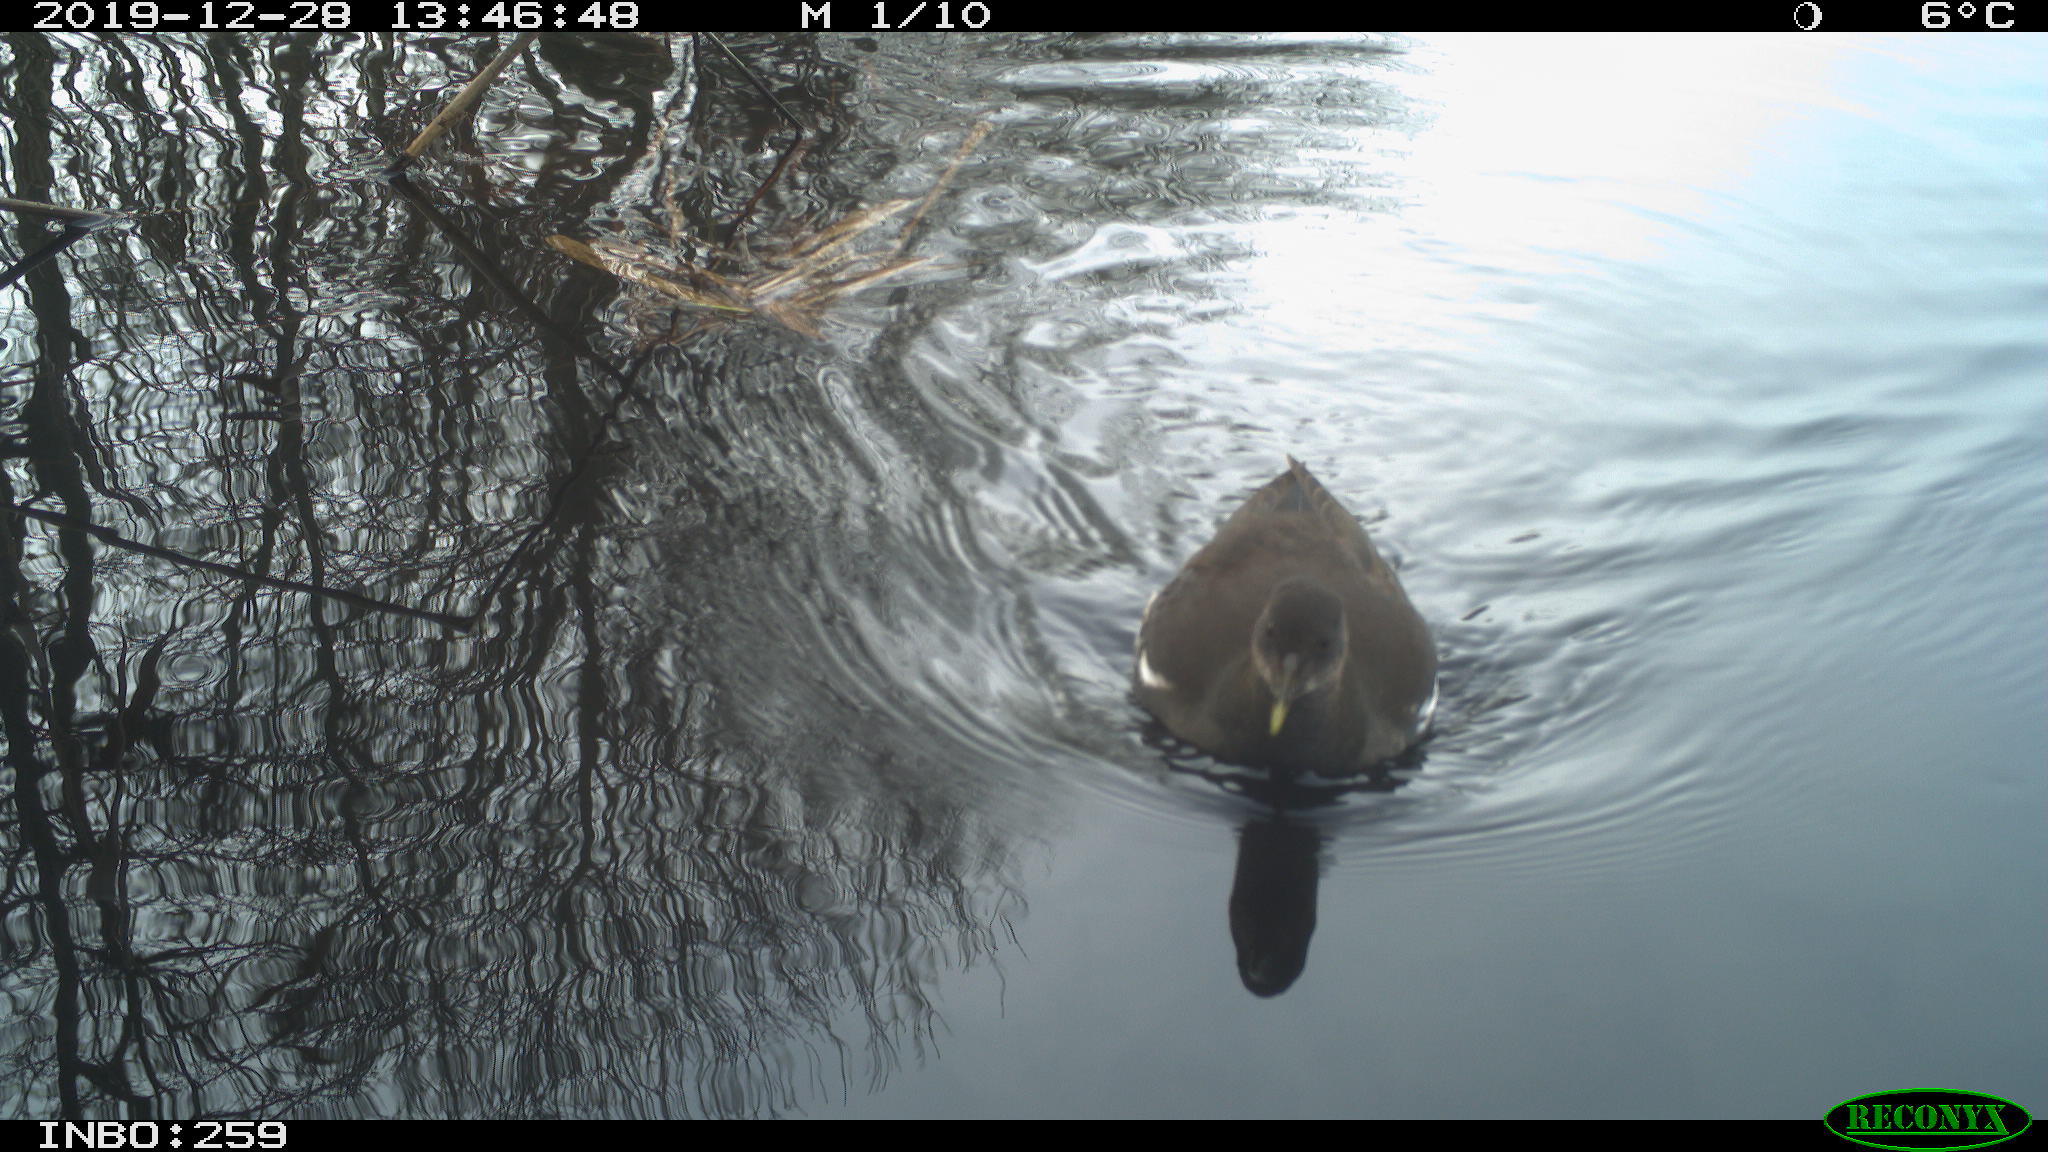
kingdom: Animalia
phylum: Chordata
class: Aves
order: Gruiformes
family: Rallidae
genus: Gallinula
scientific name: Gallinula chloropus
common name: Common moorhen
